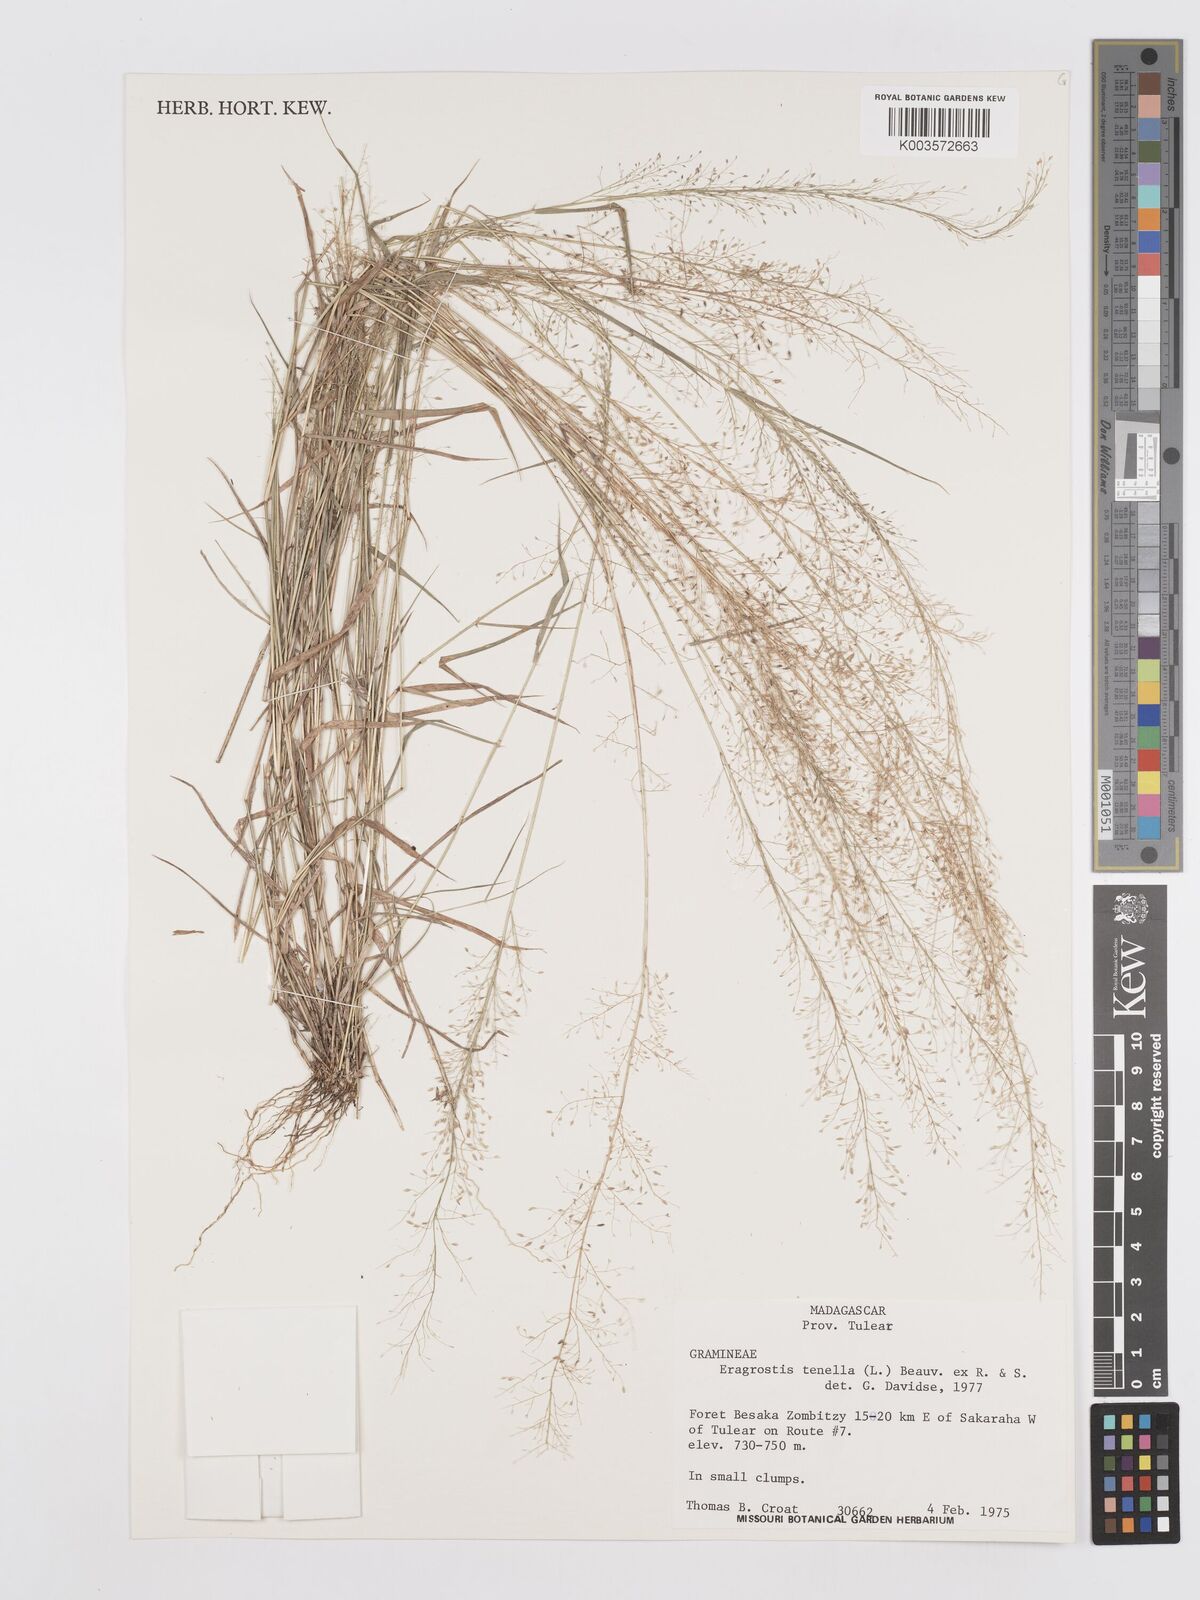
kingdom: Plantae
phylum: Tracheophyta
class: Liliopsida
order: Poales
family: Poaceae
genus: Eragrostis
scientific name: Eragrostis tenella
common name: Japanese lovegrass
